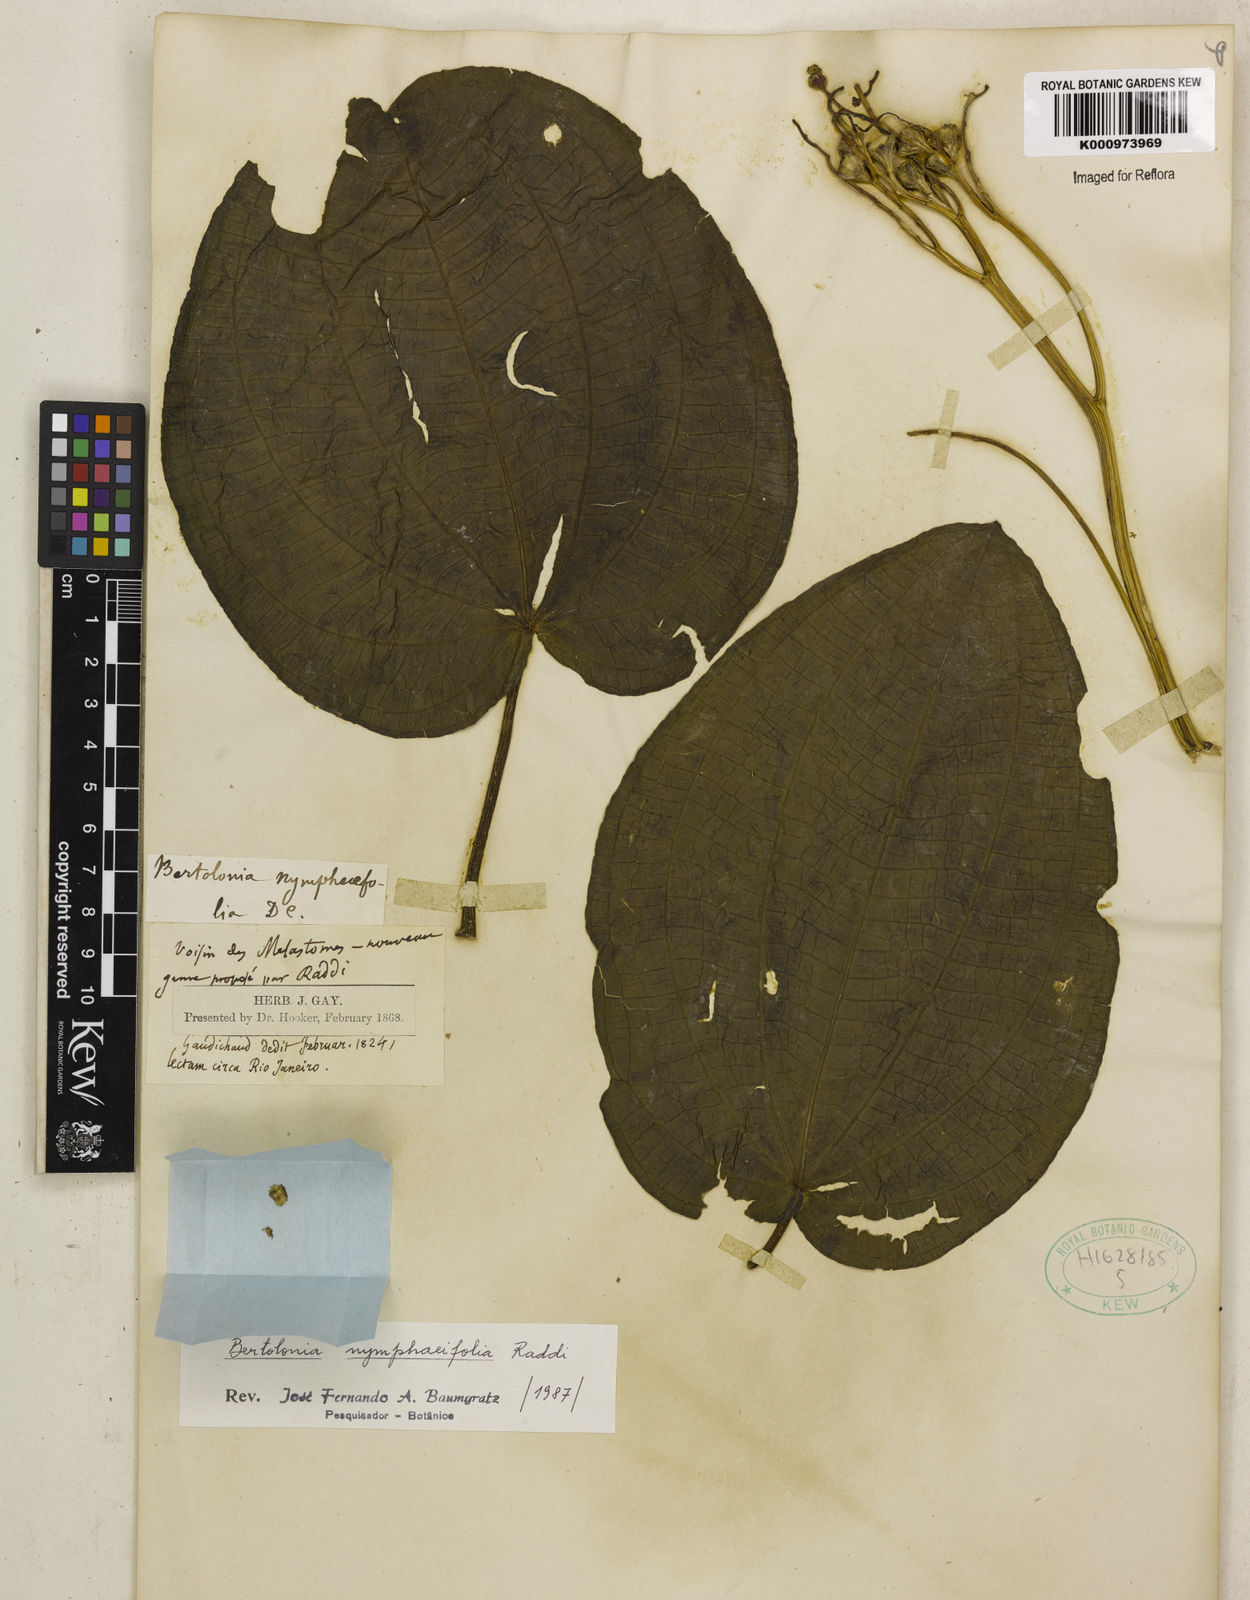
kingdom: Plantae
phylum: Tracheophyta
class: Magnoliopsida
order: Myrtales
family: Melastomataceae
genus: Bertolonia
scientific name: Bertolonia nymphaeifolia
